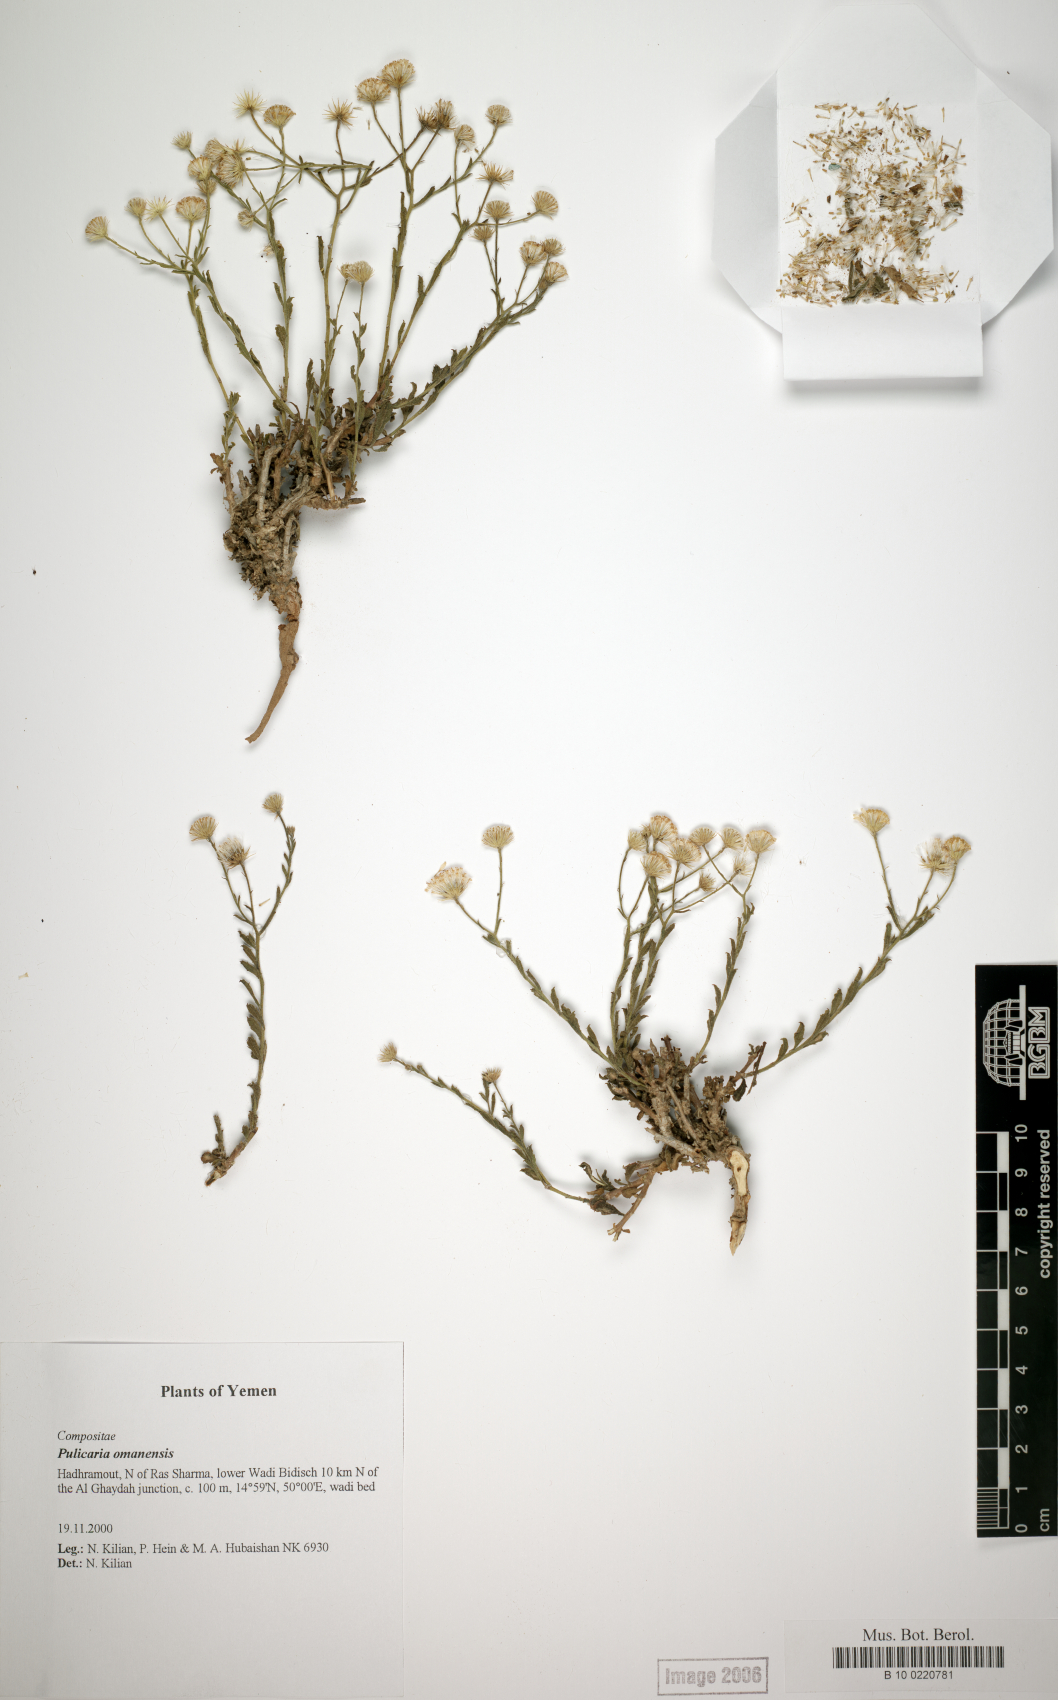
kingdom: Plantae
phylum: Tracheophyta
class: Magnoliopsida
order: Asterales
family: Asteraceae
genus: Pulicaria
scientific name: Pulicaria omanensis
